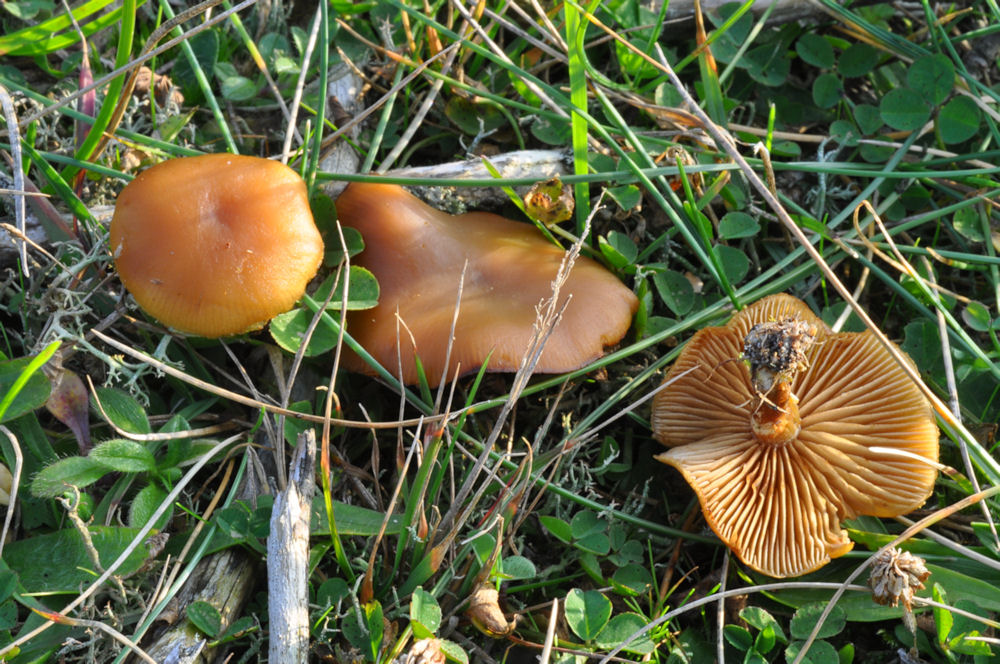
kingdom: Fungi
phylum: Basidiomycota
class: Agaricomycetes
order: Agaricales
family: Hymenogastraceae
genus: Galerina
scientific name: Galerina marginata
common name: randbæltet hjelmhat
